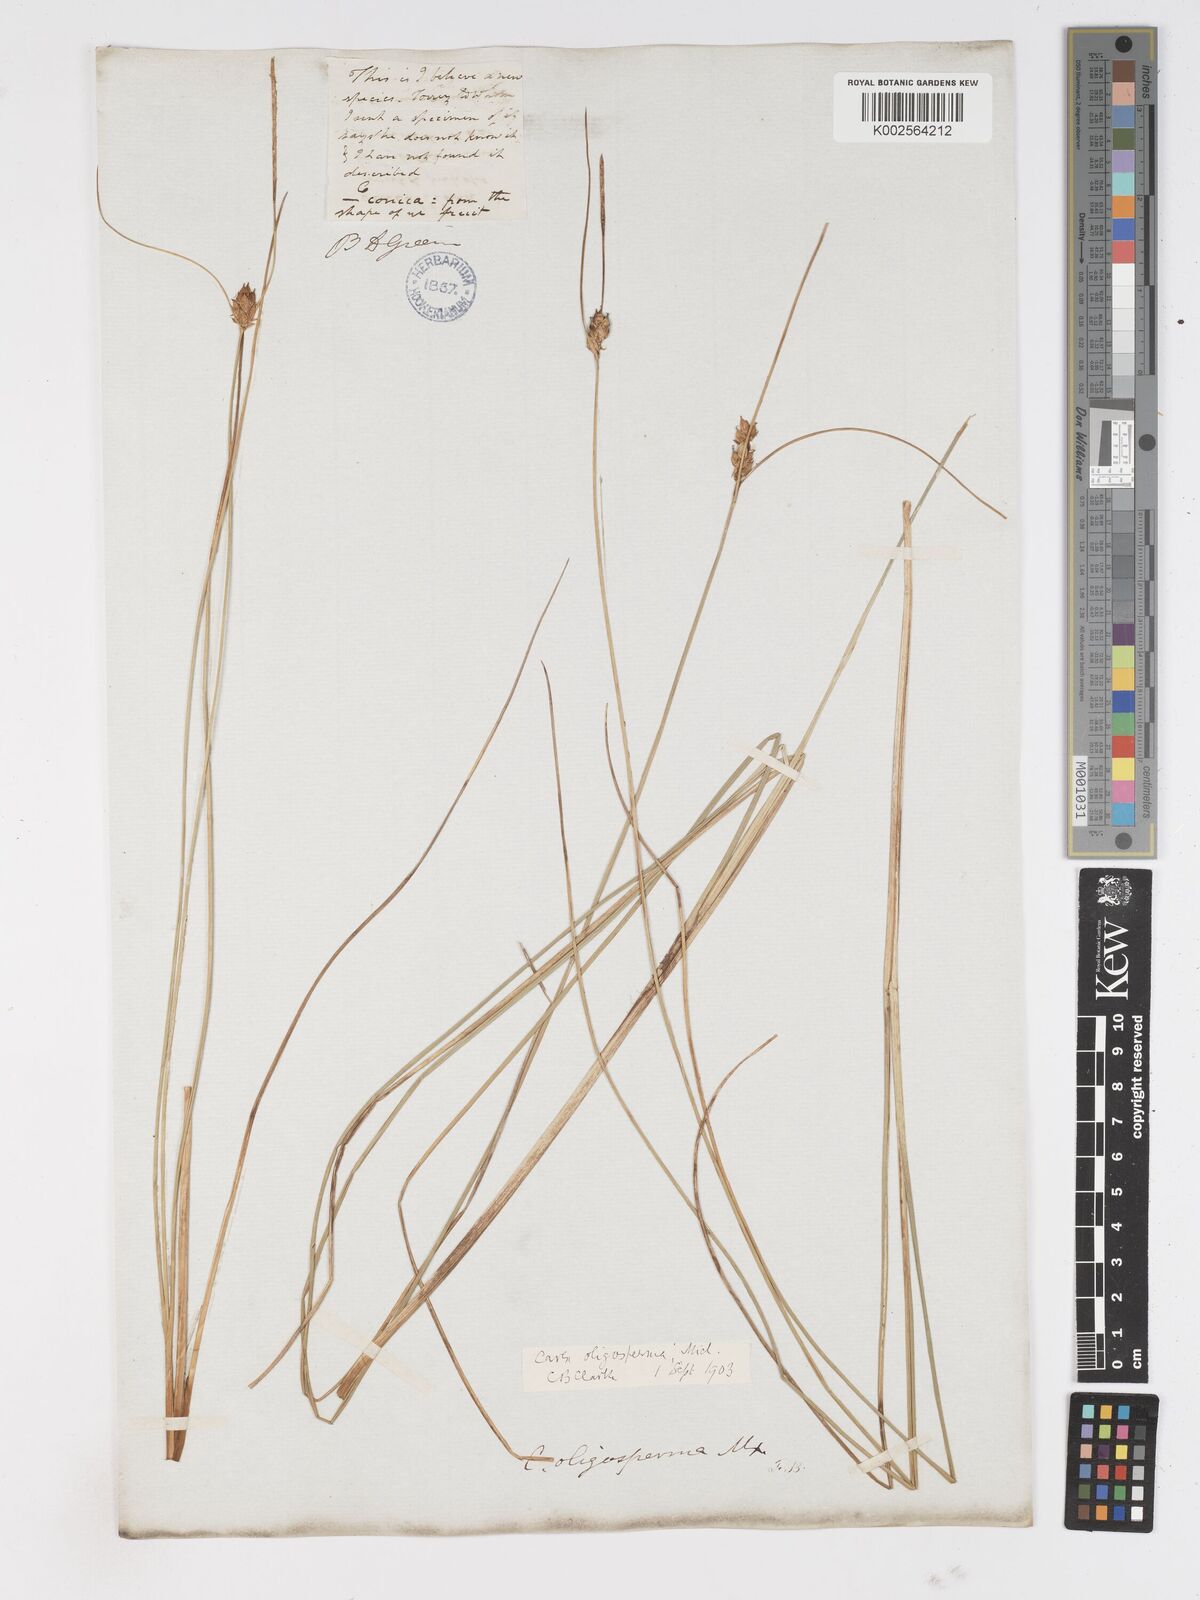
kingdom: Plantae
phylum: Tracheophyta
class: Liliopsida
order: Poales
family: Cyperaceae
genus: Carex
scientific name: Carex oligosperma
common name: Few-seed sedge
